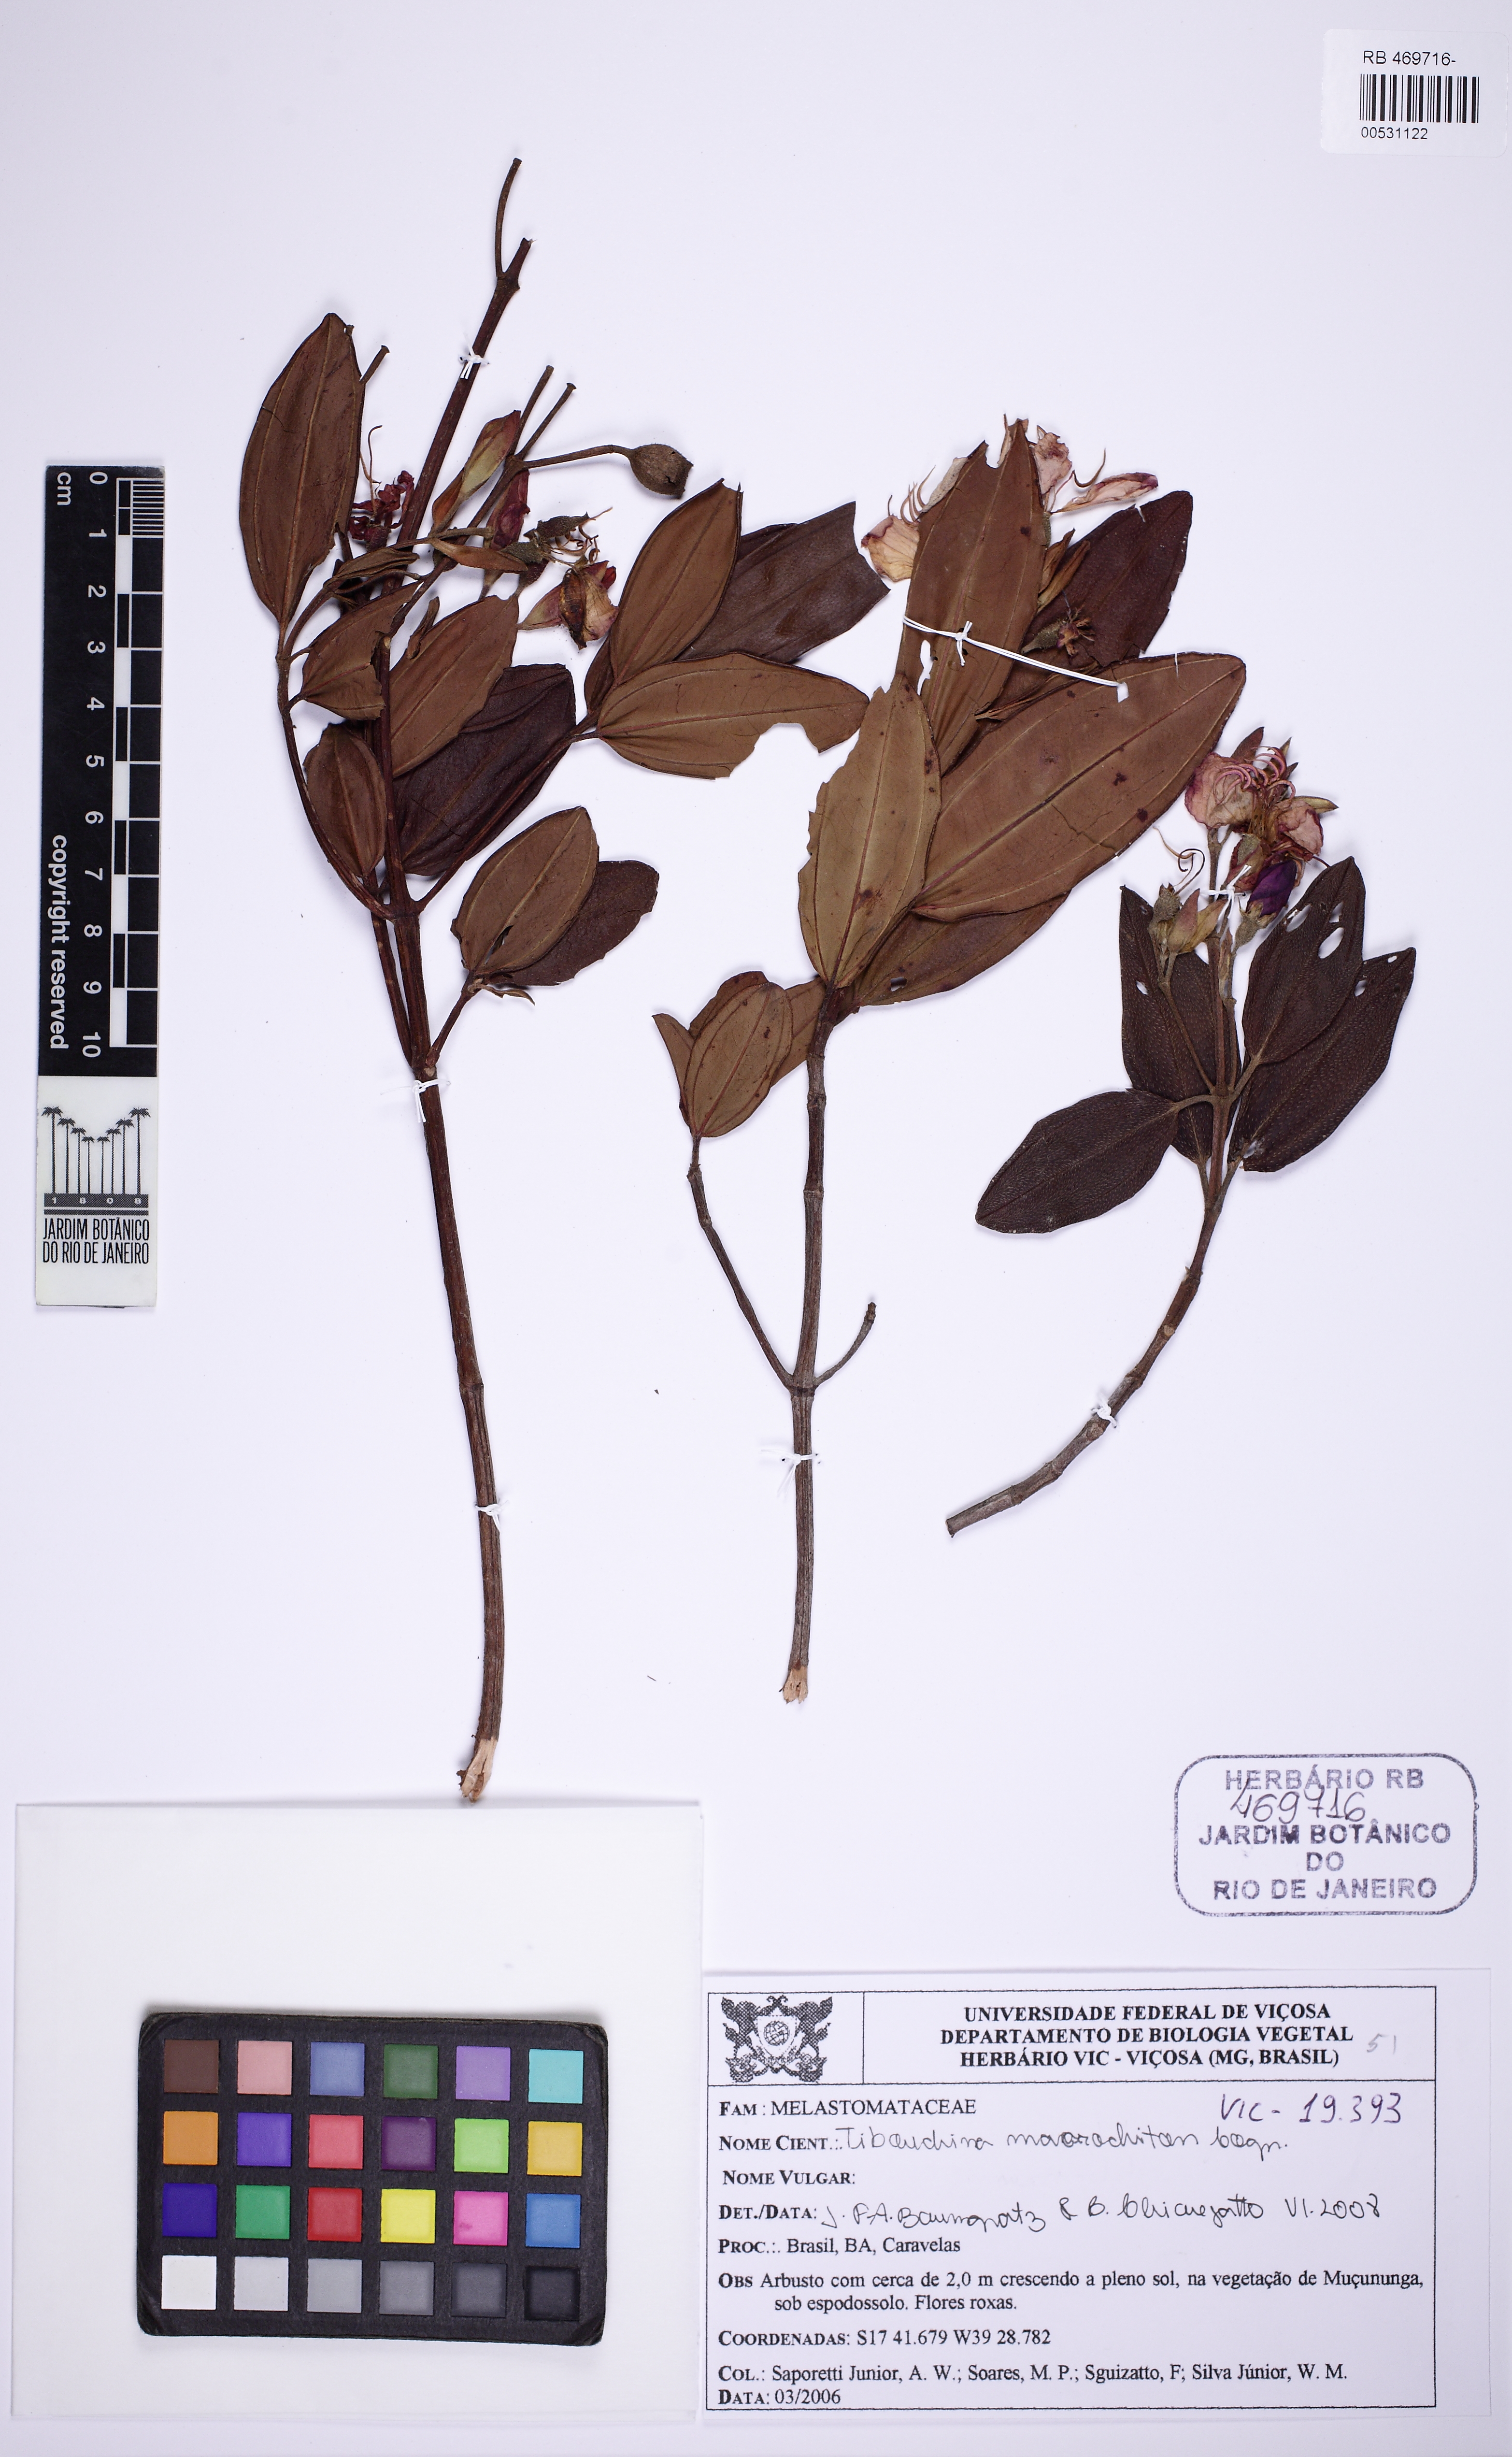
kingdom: Plantae
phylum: Tracheophyta
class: Magnoliopsida
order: Myrtales
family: Melastomataceae
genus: Pleroma
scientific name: Pleroma macrochiton
